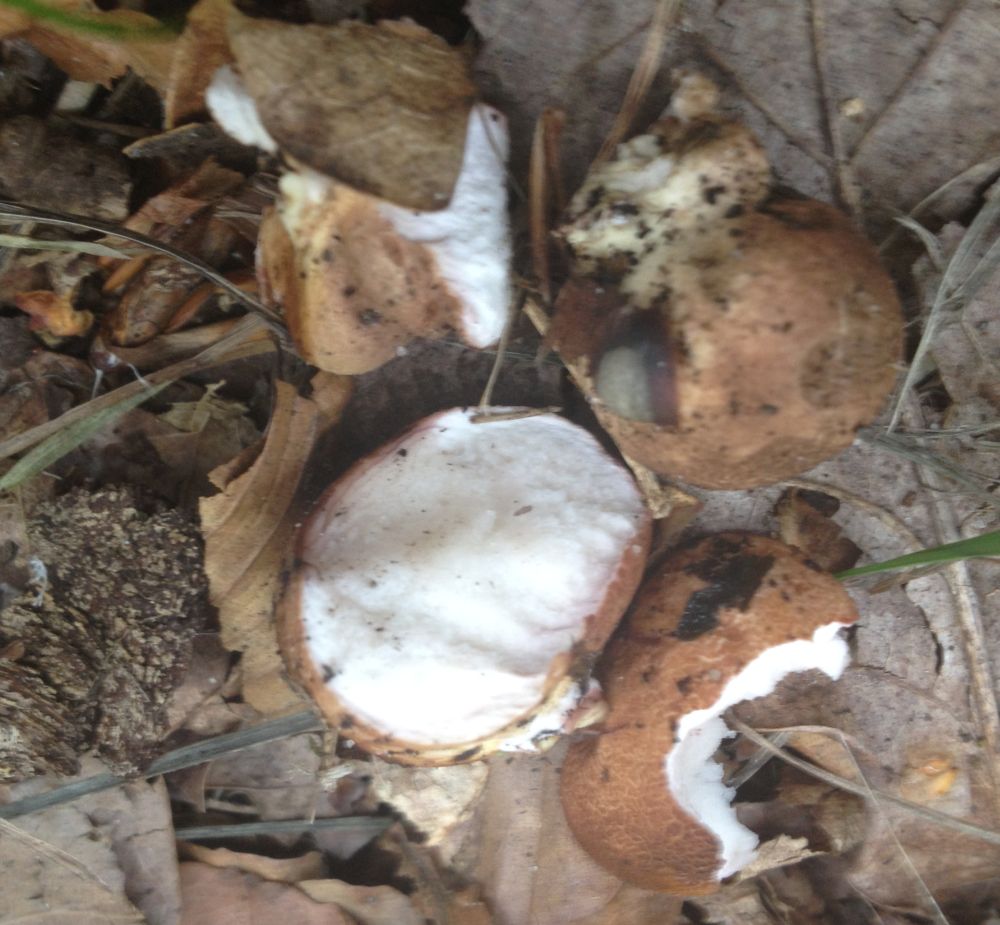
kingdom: Fungi
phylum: Basidiomycota
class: Agaricomycetes
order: Boletales
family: Sclerodermataceae
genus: Scleroderma
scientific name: Scleroderma
